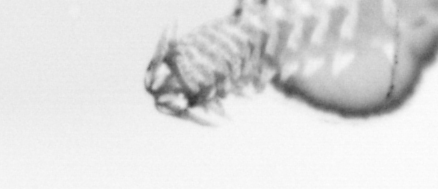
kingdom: Animalia
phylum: Annelida
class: Polychaeta
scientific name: Polychaeta
